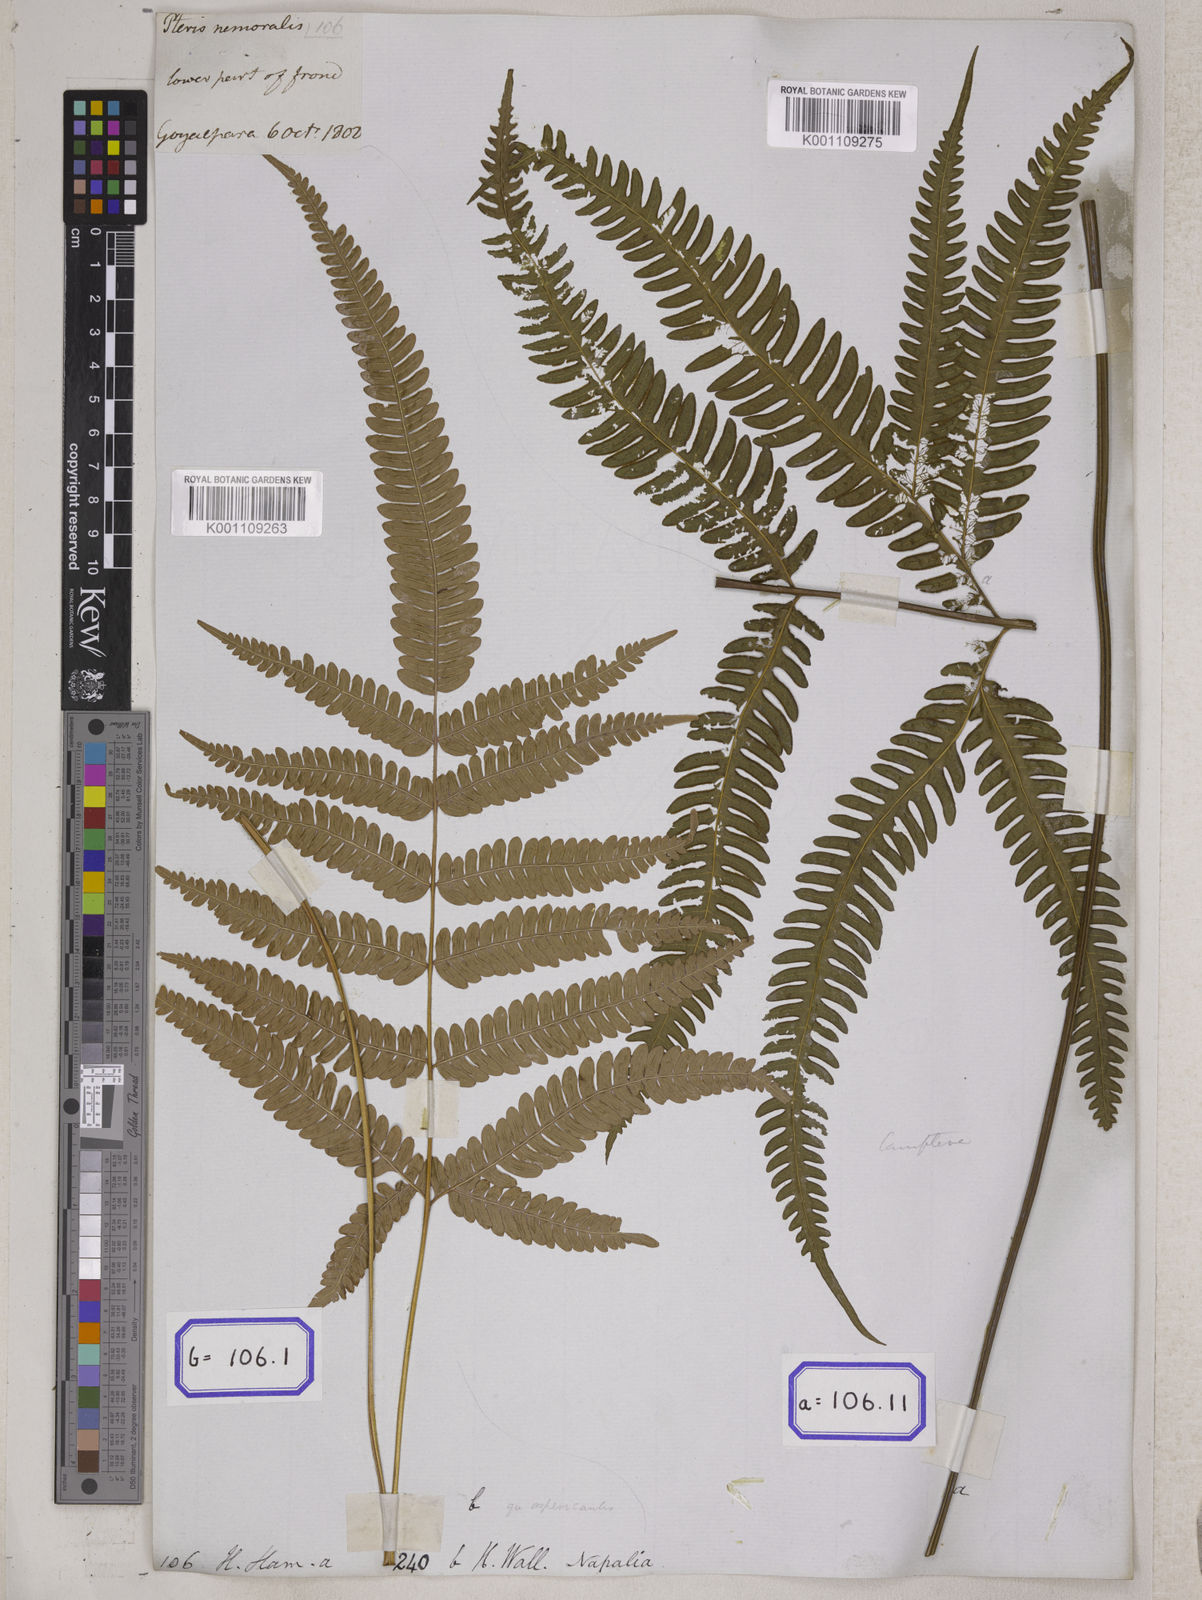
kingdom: Plantae
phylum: Tracheophyta
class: Polypodiopsida
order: Polypodiales
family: Pteridaceae
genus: Pteris
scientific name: Pteris linearis
